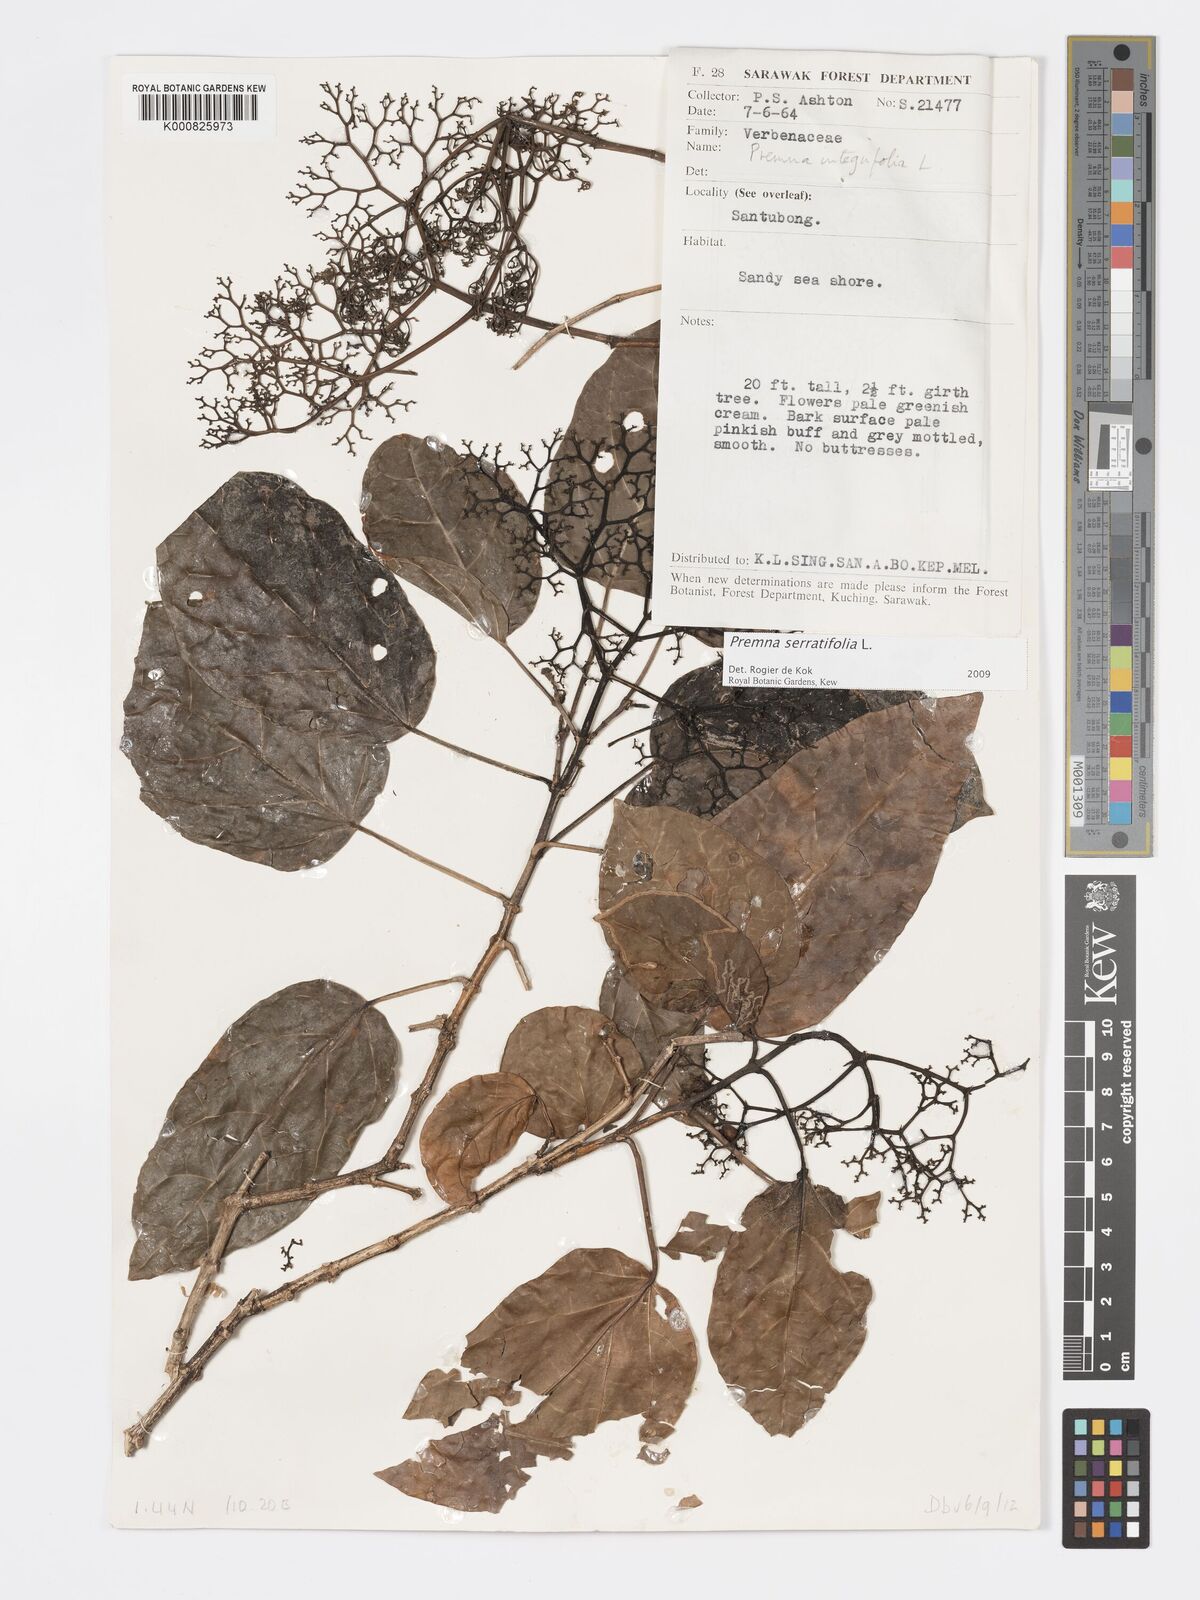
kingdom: Plantae
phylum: Tracheophyta
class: Magnoliopsida
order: Lamiales
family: Lamiaceae
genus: Premna
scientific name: Premna serratifolia
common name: Bastard guelder
